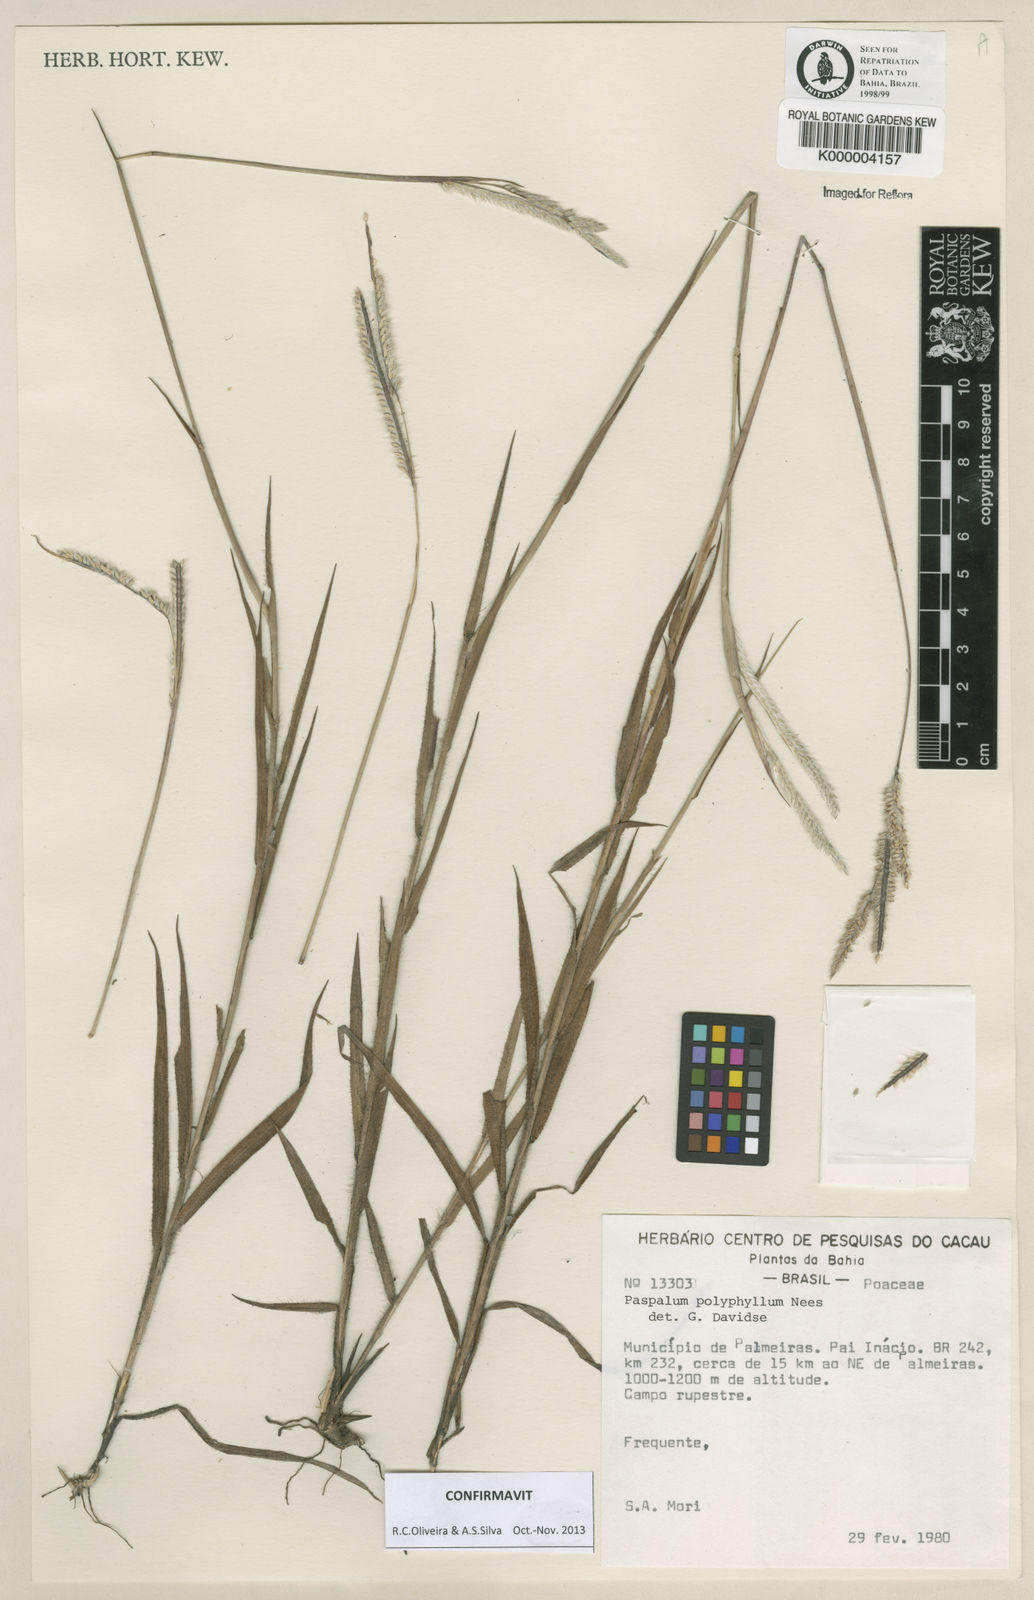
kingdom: Plantae
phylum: Tracheophyta
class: Liliopsida
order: Poales
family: Poaceae
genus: Paspalum
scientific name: Paspalum
